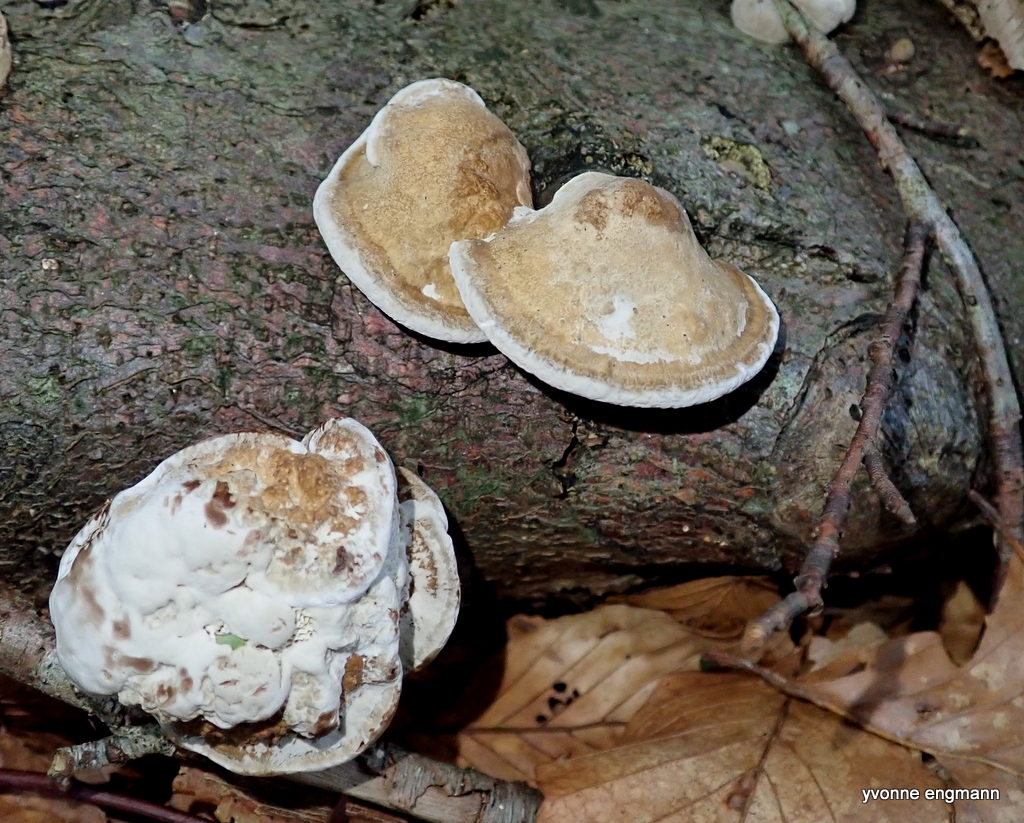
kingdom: Fungi
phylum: Basidiomycota
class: Agaricomycetes
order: Polyporales
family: Polyporaceae
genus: Daedaleopsis
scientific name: Daedaleopsis confragosa
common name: rødmende læderporesvamp
